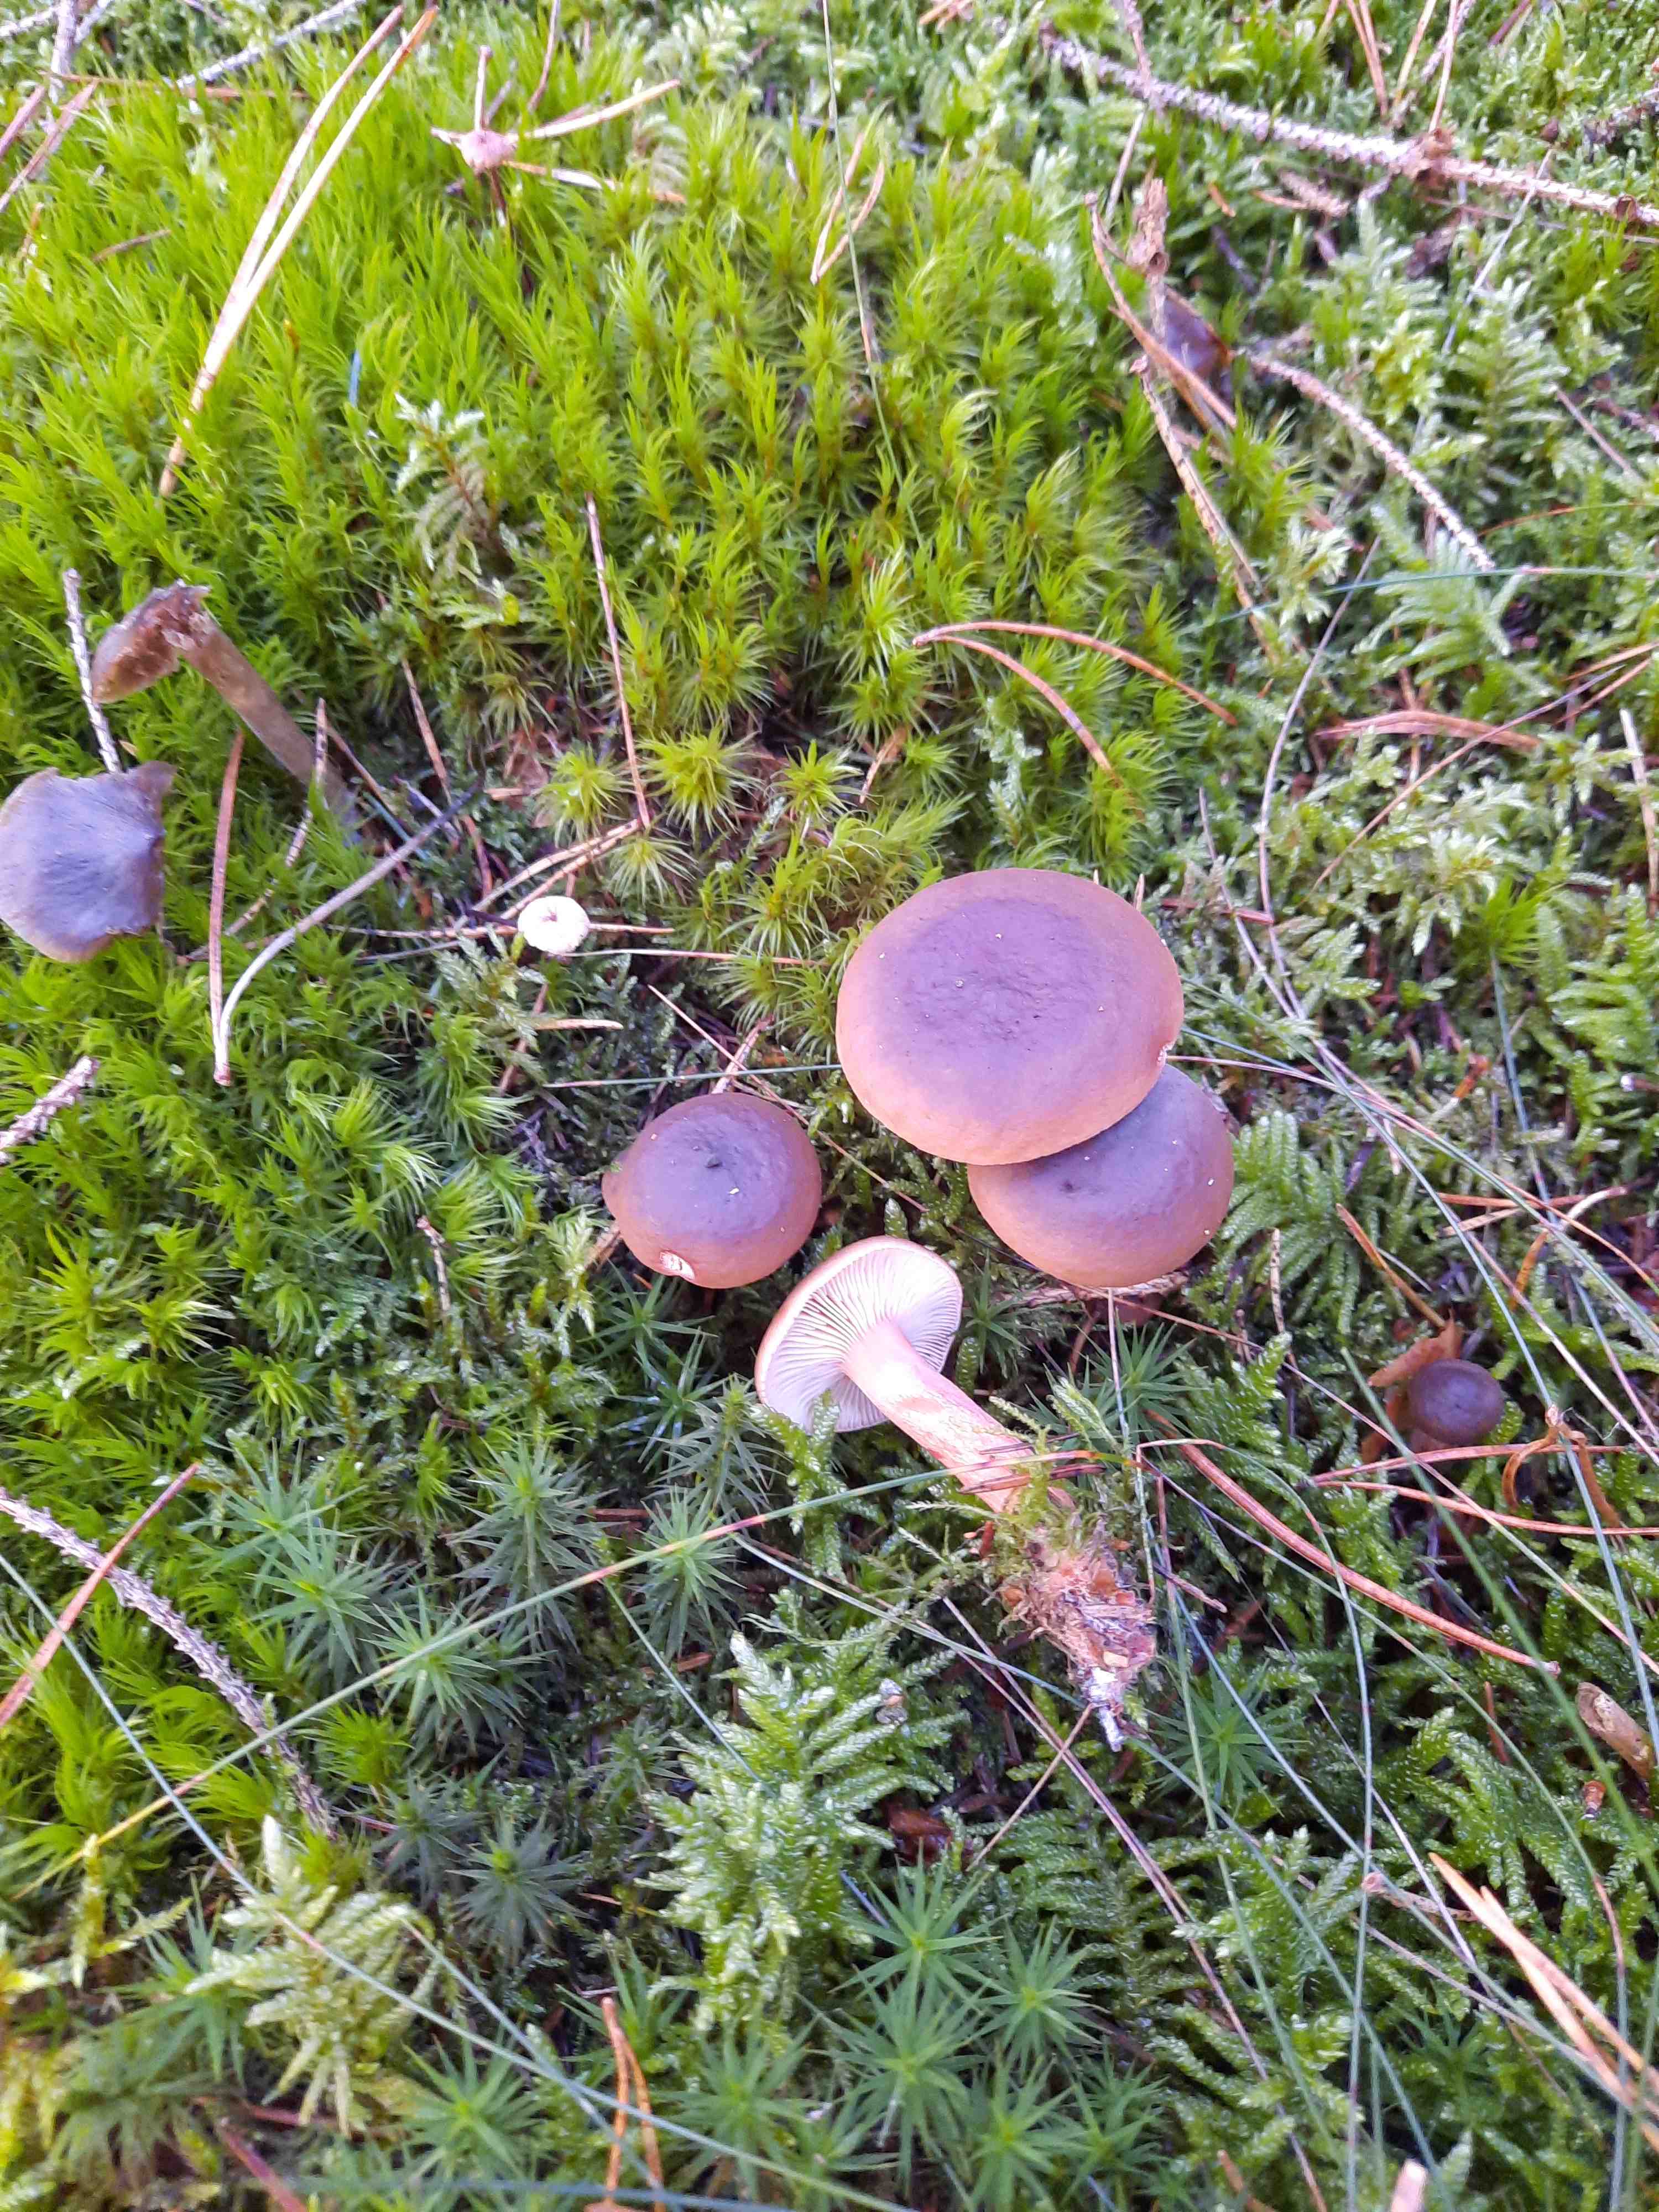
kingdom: Fungi
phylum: Basidiomycota
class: Agaricomycetes
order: Russulales
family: Russulaceae
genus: Lactarius
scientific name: Lactarius hepaticus
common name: leverbrun mælkehat
